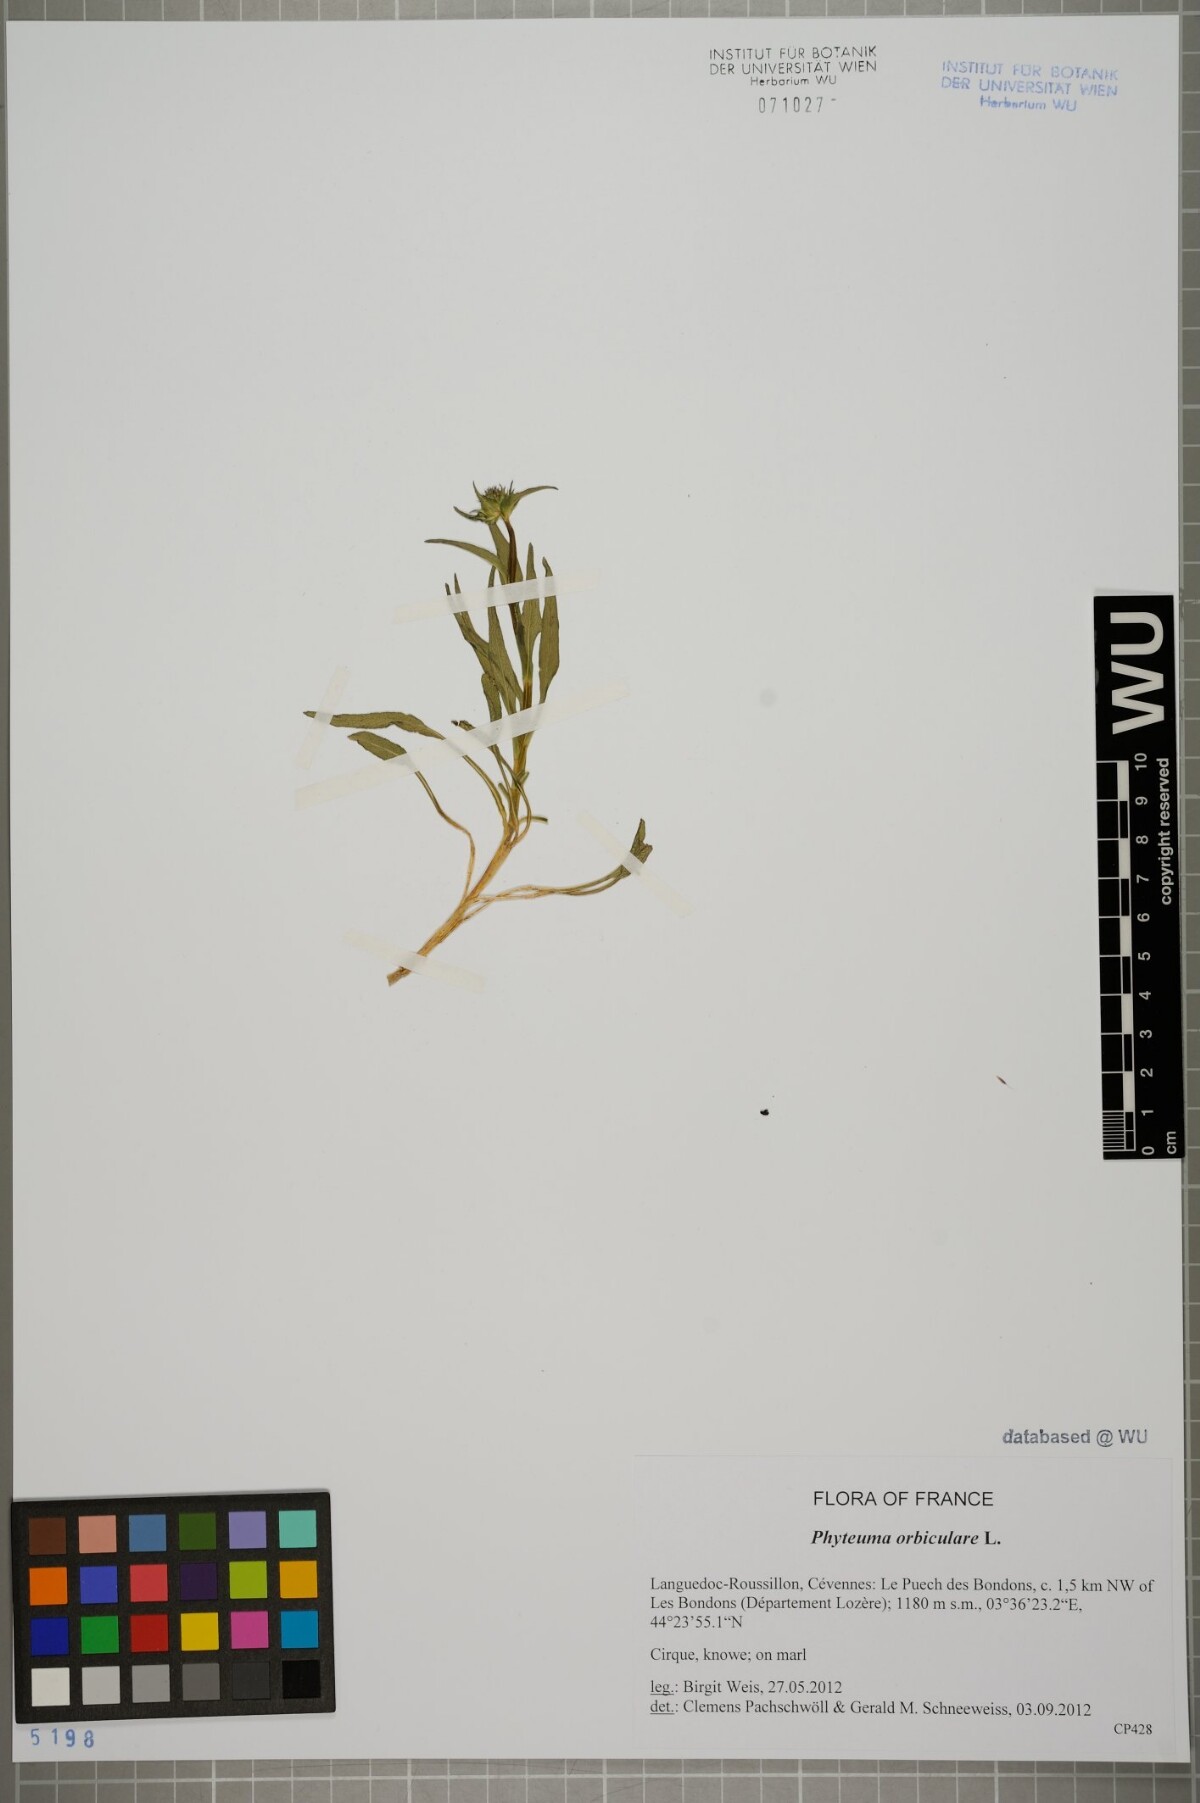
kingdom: Plantae
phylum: Tracheophyta
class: Magnoliopsida
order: Asterales
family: Campanulaceae
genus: Phyteuma
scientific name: Phyteuma orbiculare
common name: Round-headed rampion
